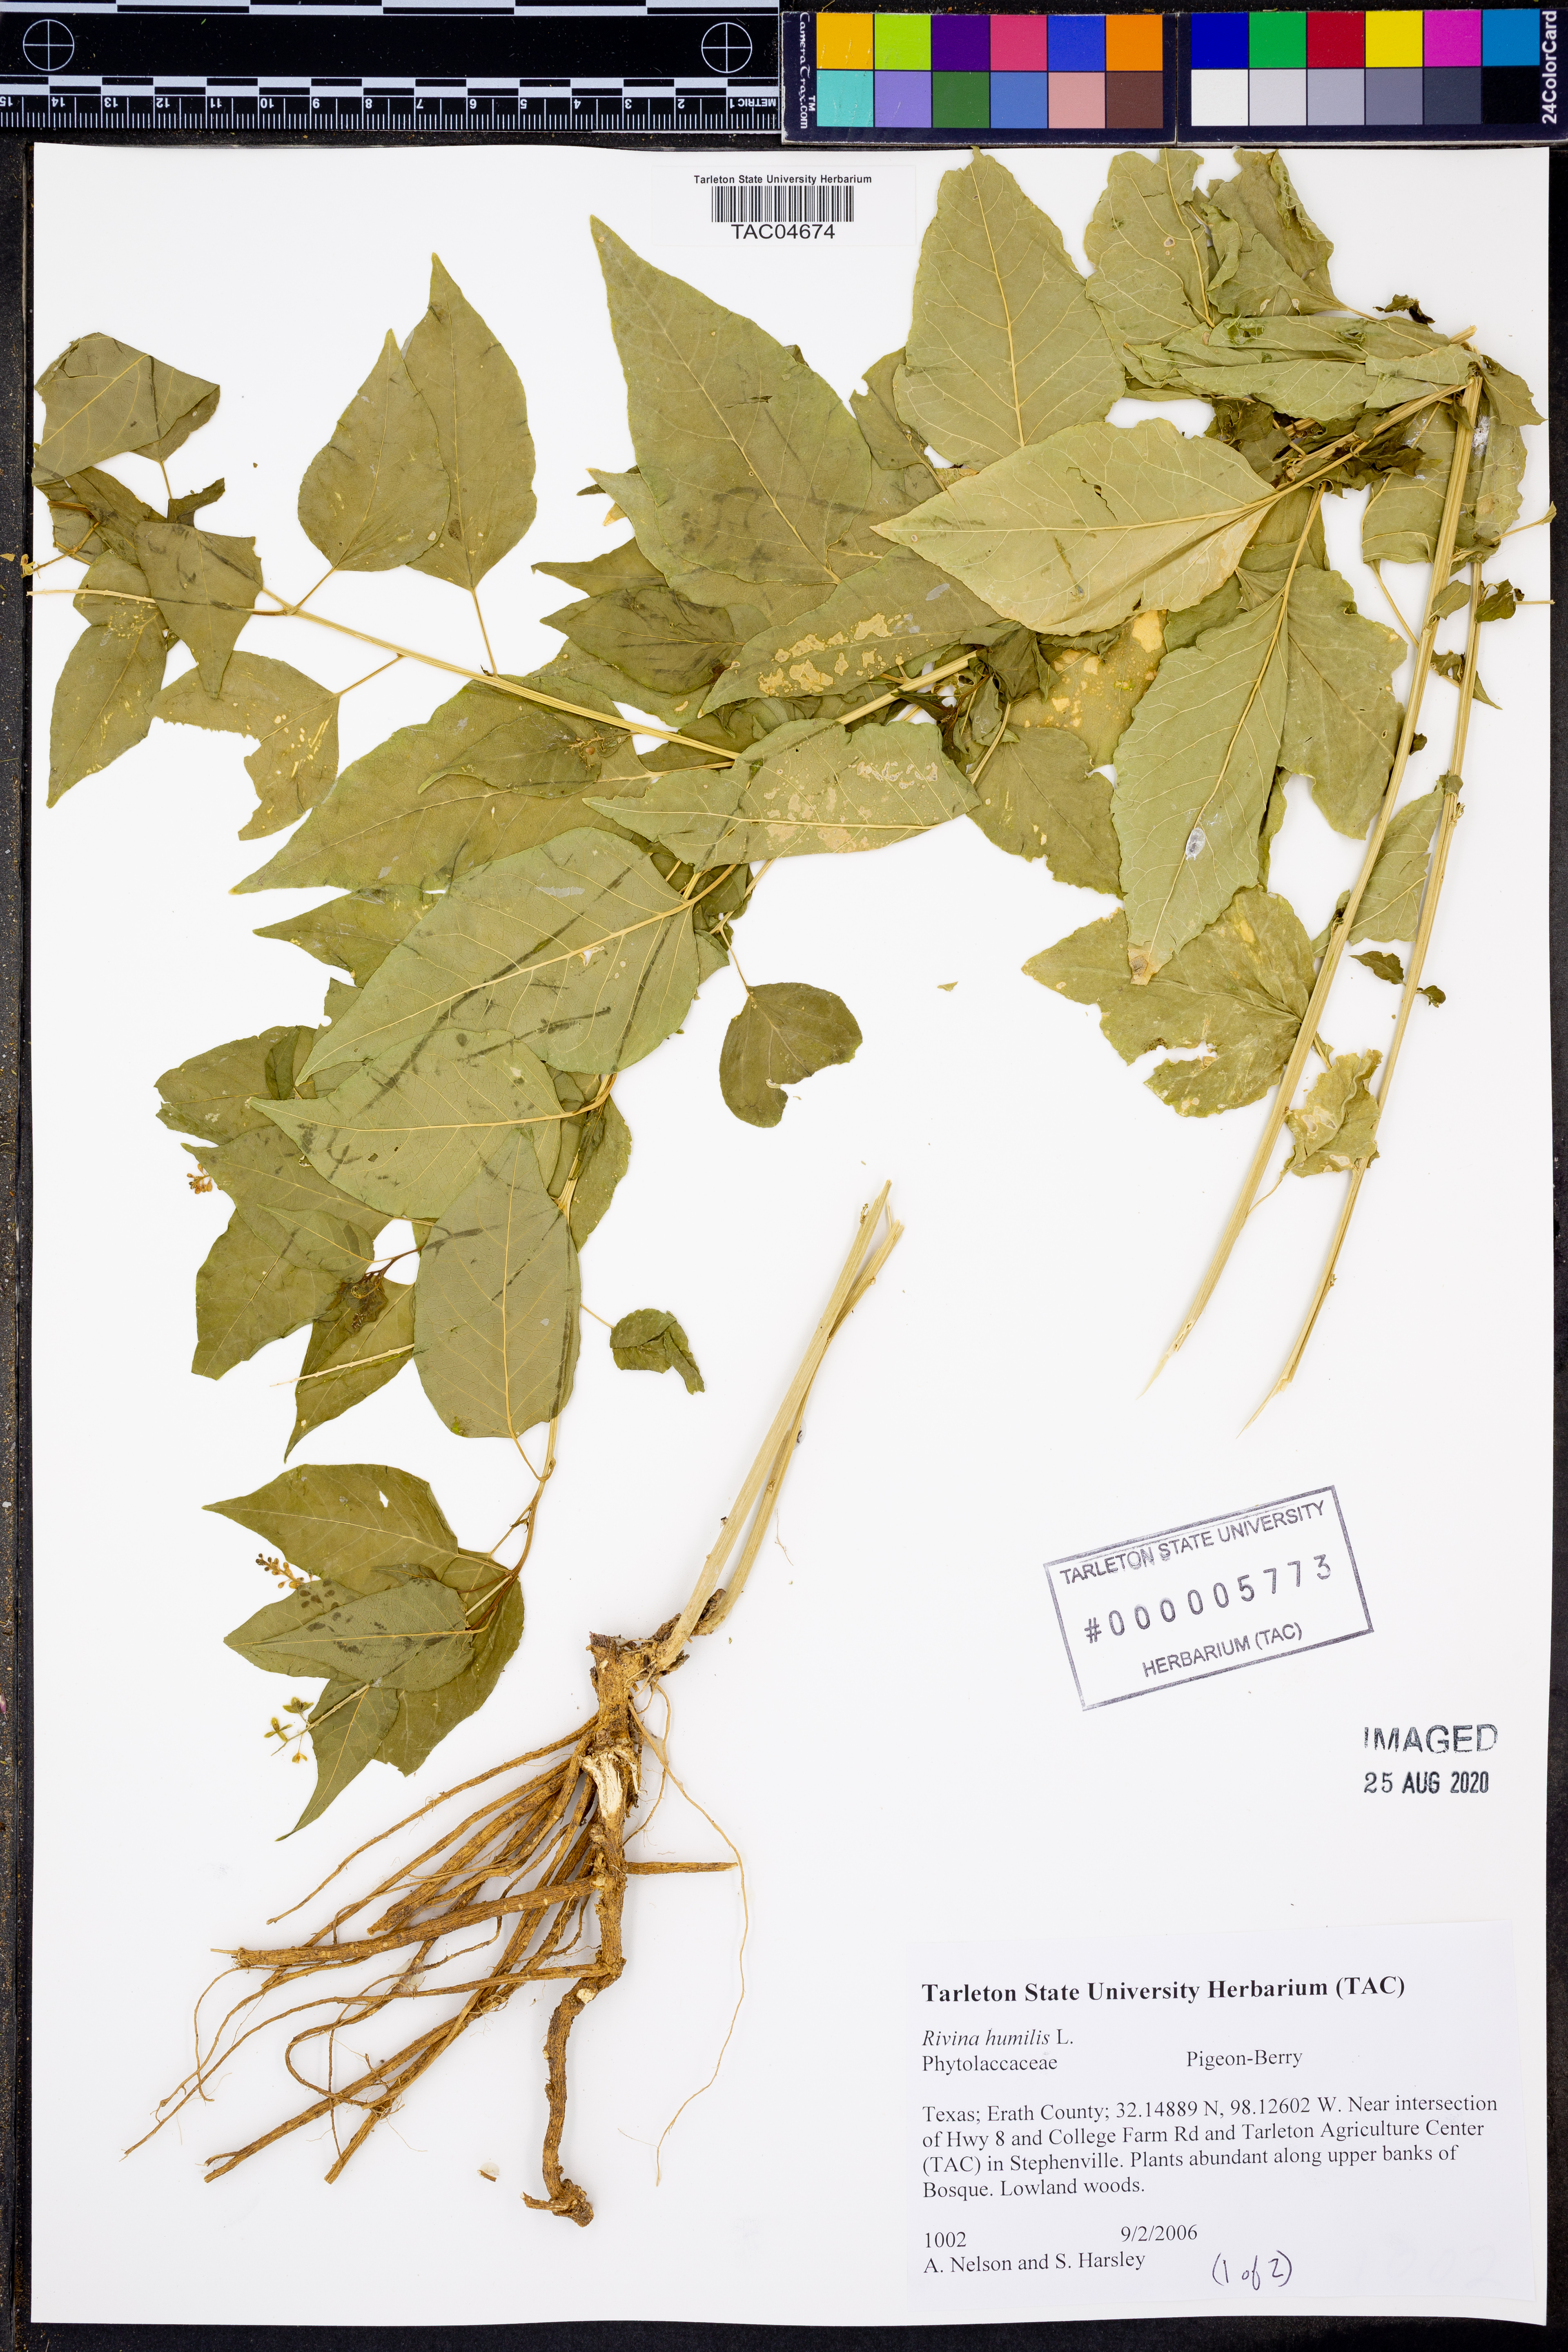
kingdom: Plantae
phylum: Tracheophyta
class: Magnoliopsida
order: Caryophyllales
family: Phytolaccaceae
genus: Rivina
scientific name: Rivina humilis
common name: Rougeplant
